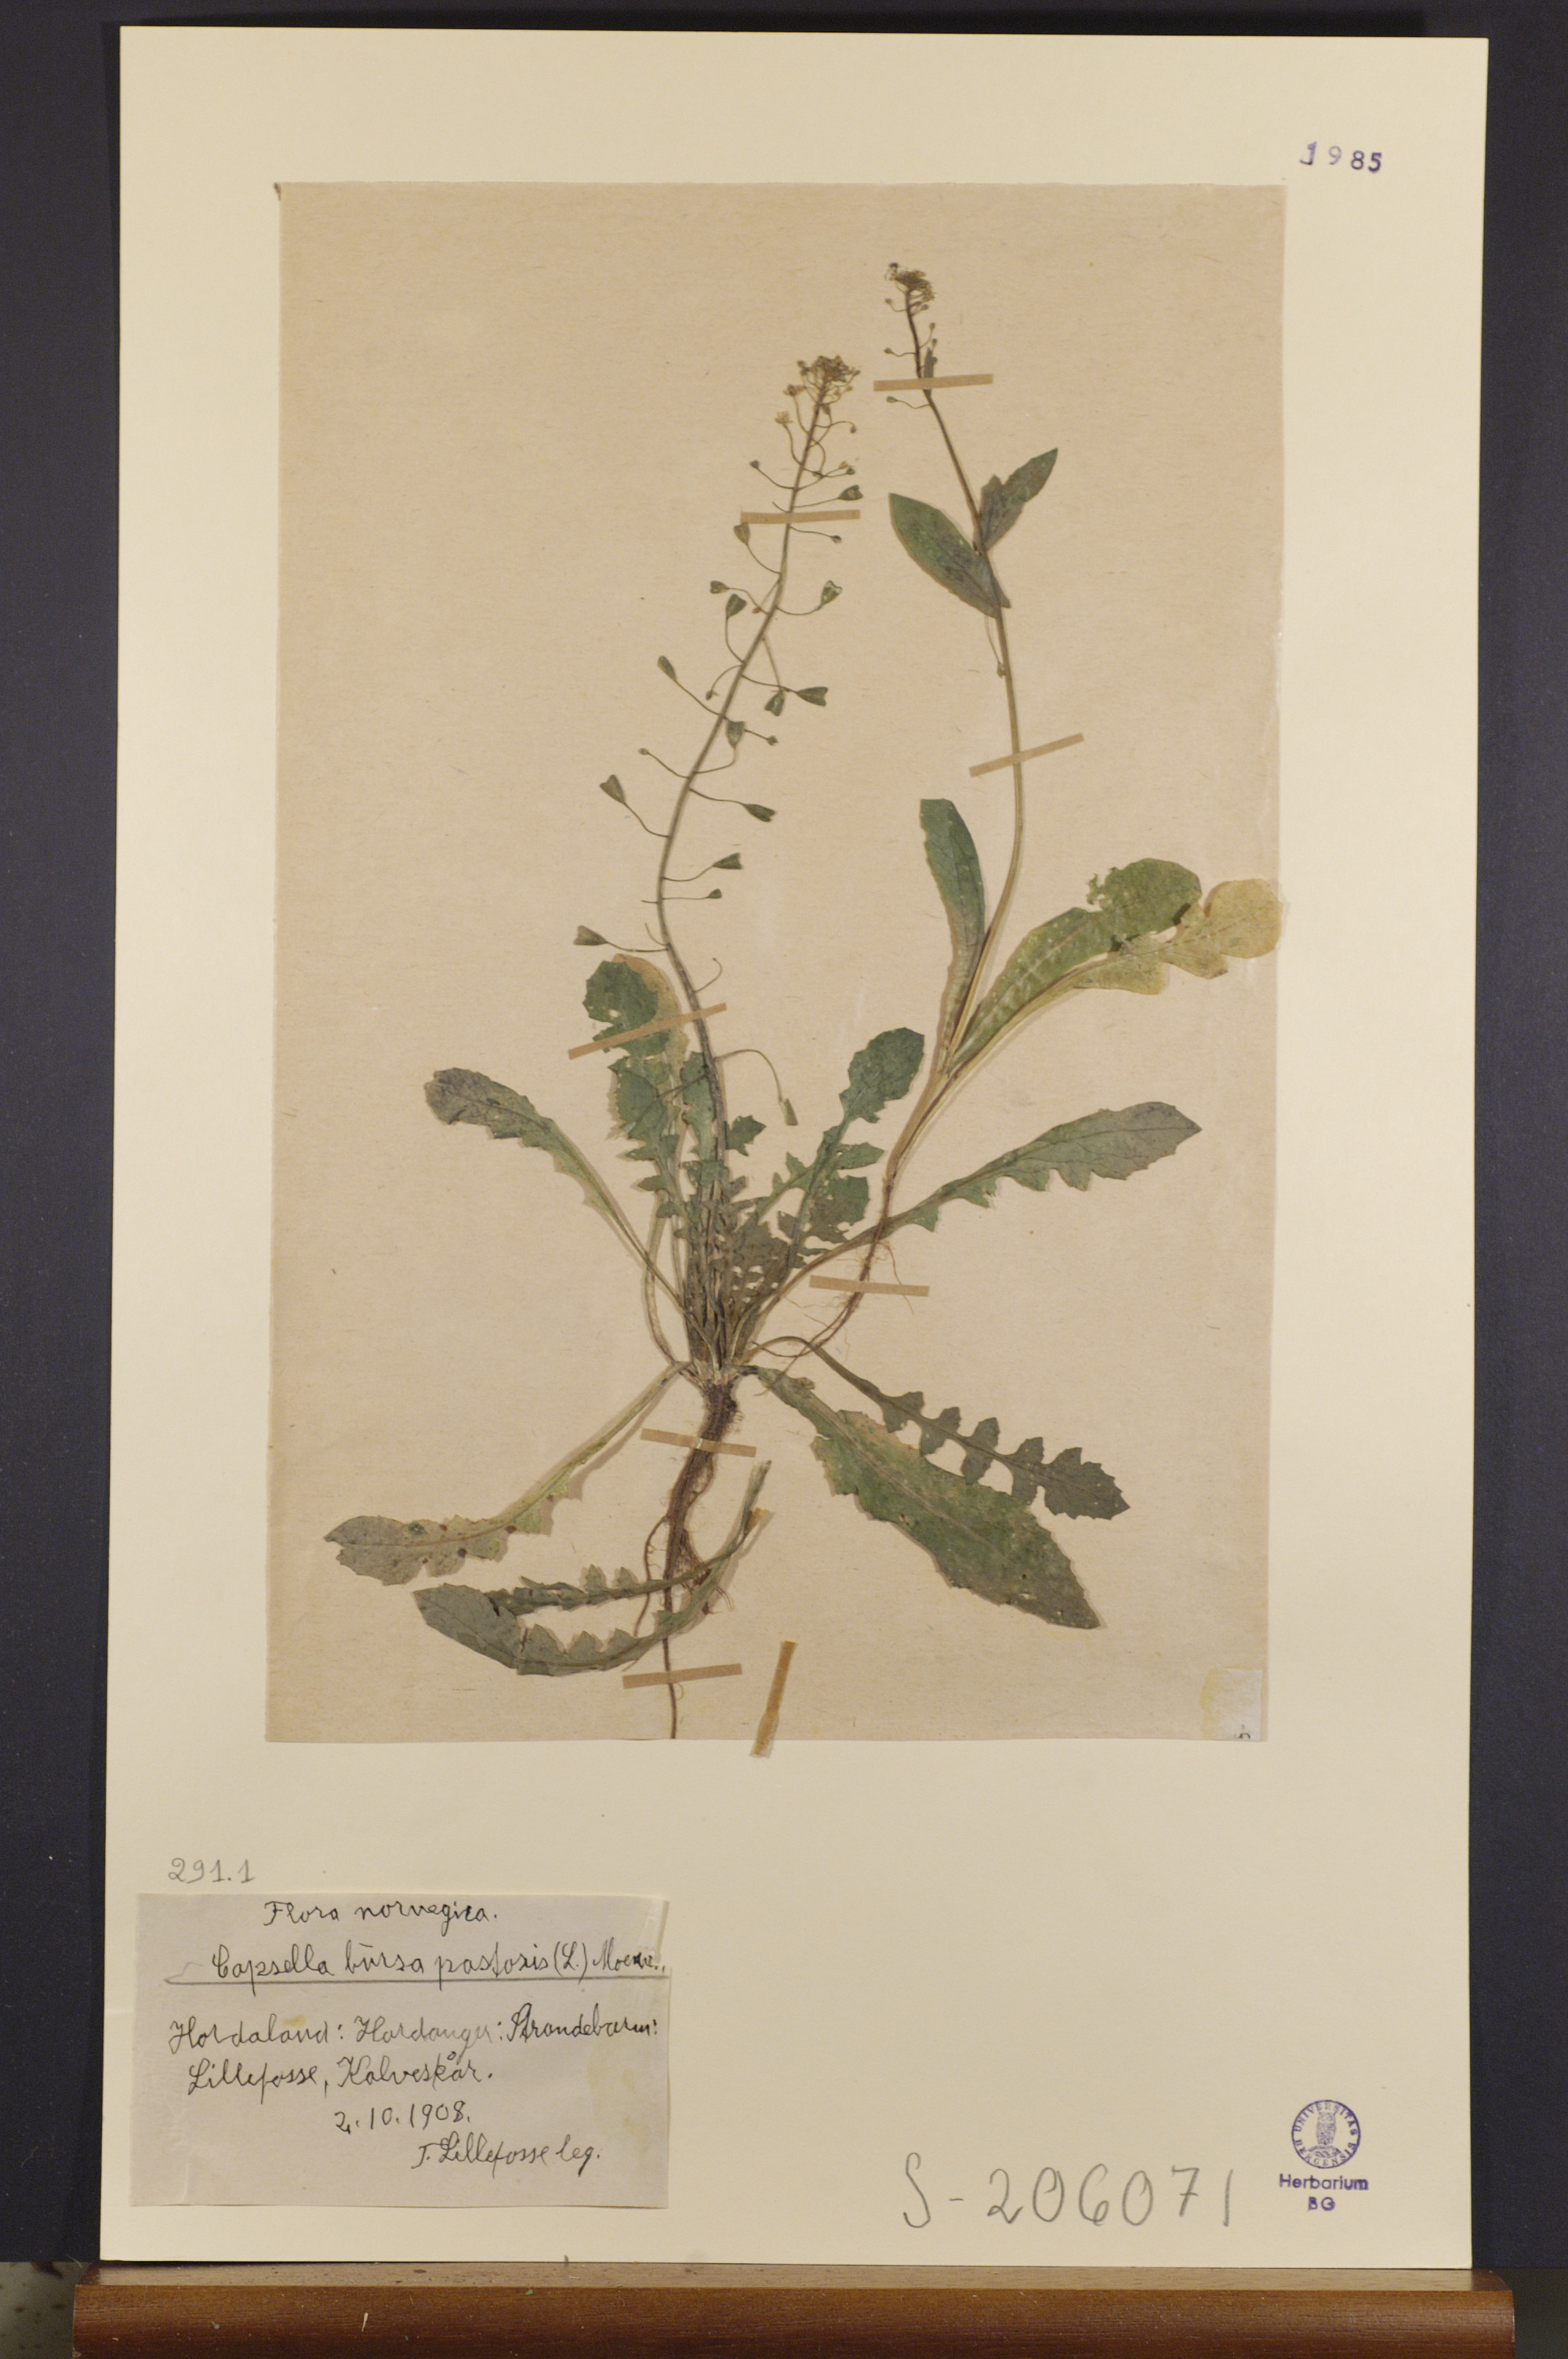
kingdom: Plantae
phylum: Tracheophyta
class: Magnoliopsida
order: Brassicales
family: Brassicaceae
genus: Capsella
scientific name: Capsella bursa-pastoris
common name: Shepherd's purse
